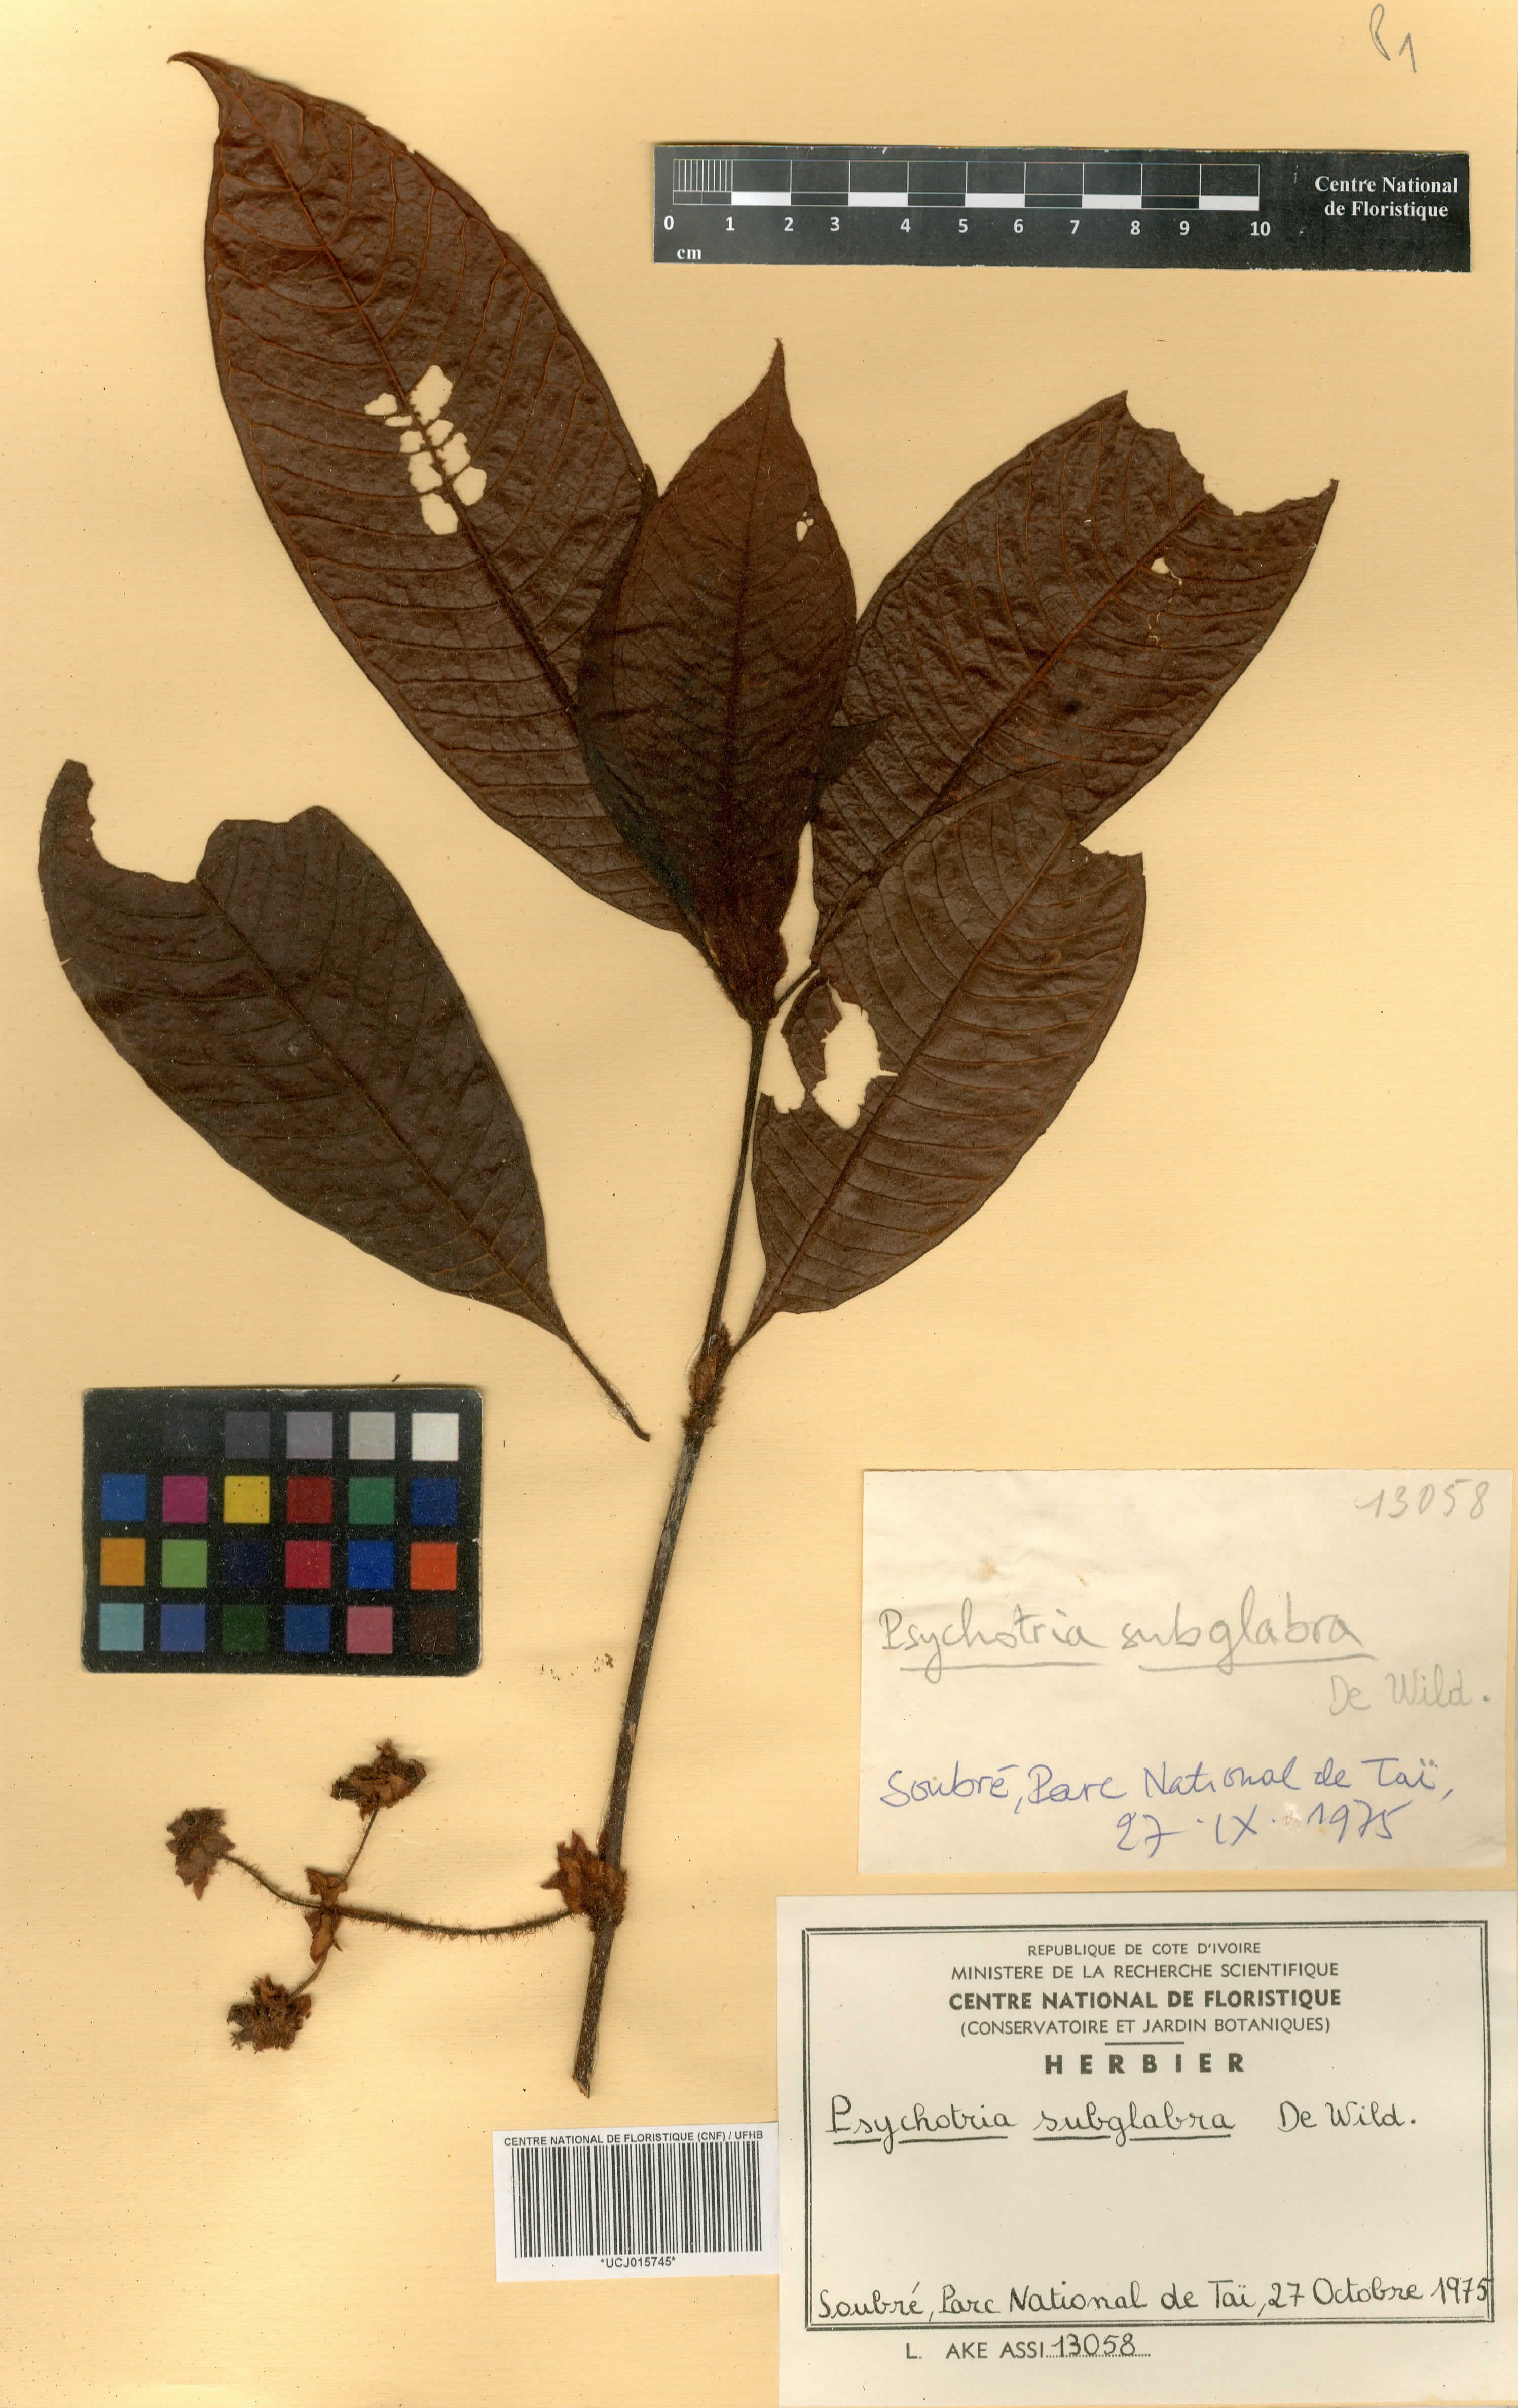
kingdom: Plantae
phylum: Tracheophyta
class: Magnoliopsida
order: Gentianales
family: Rubiaceae
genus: Psychotria
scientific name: Psychotria subglabra
